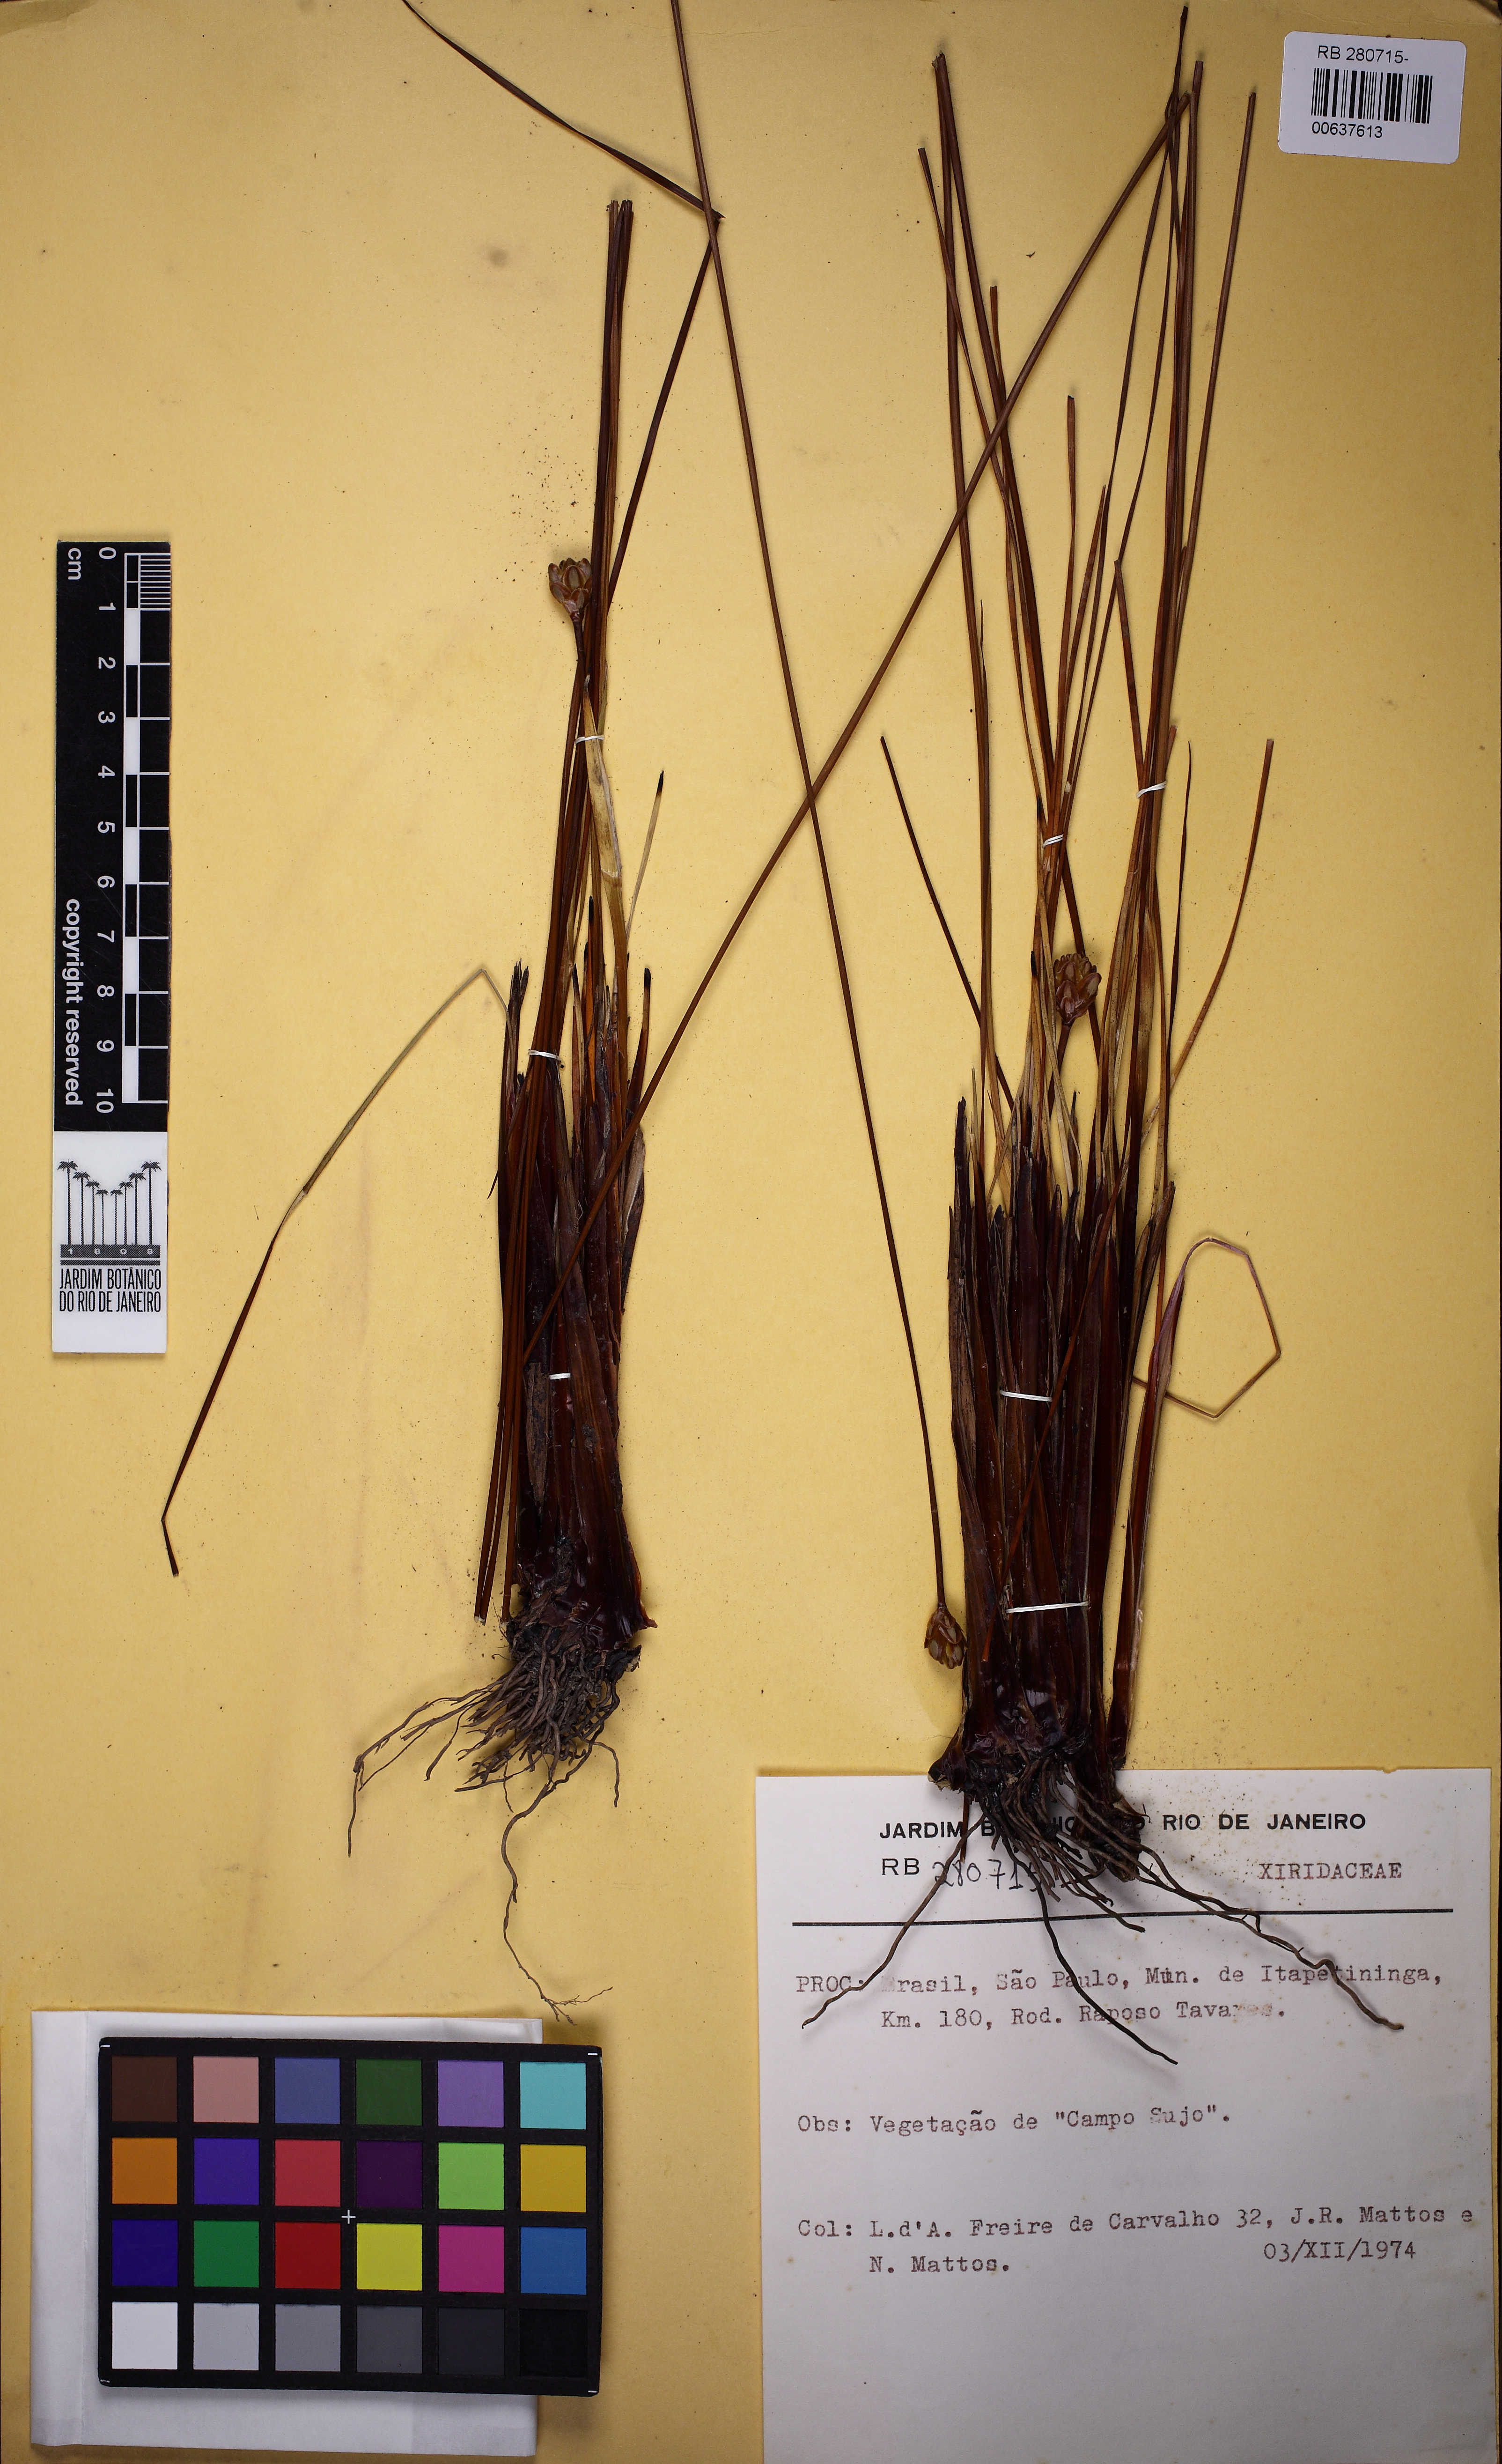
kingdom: Plantae
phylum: Tracheophyta
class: Liliopsida
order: Poales
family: Xyridaceae
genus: Xyris
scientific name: Xyris neglecta
